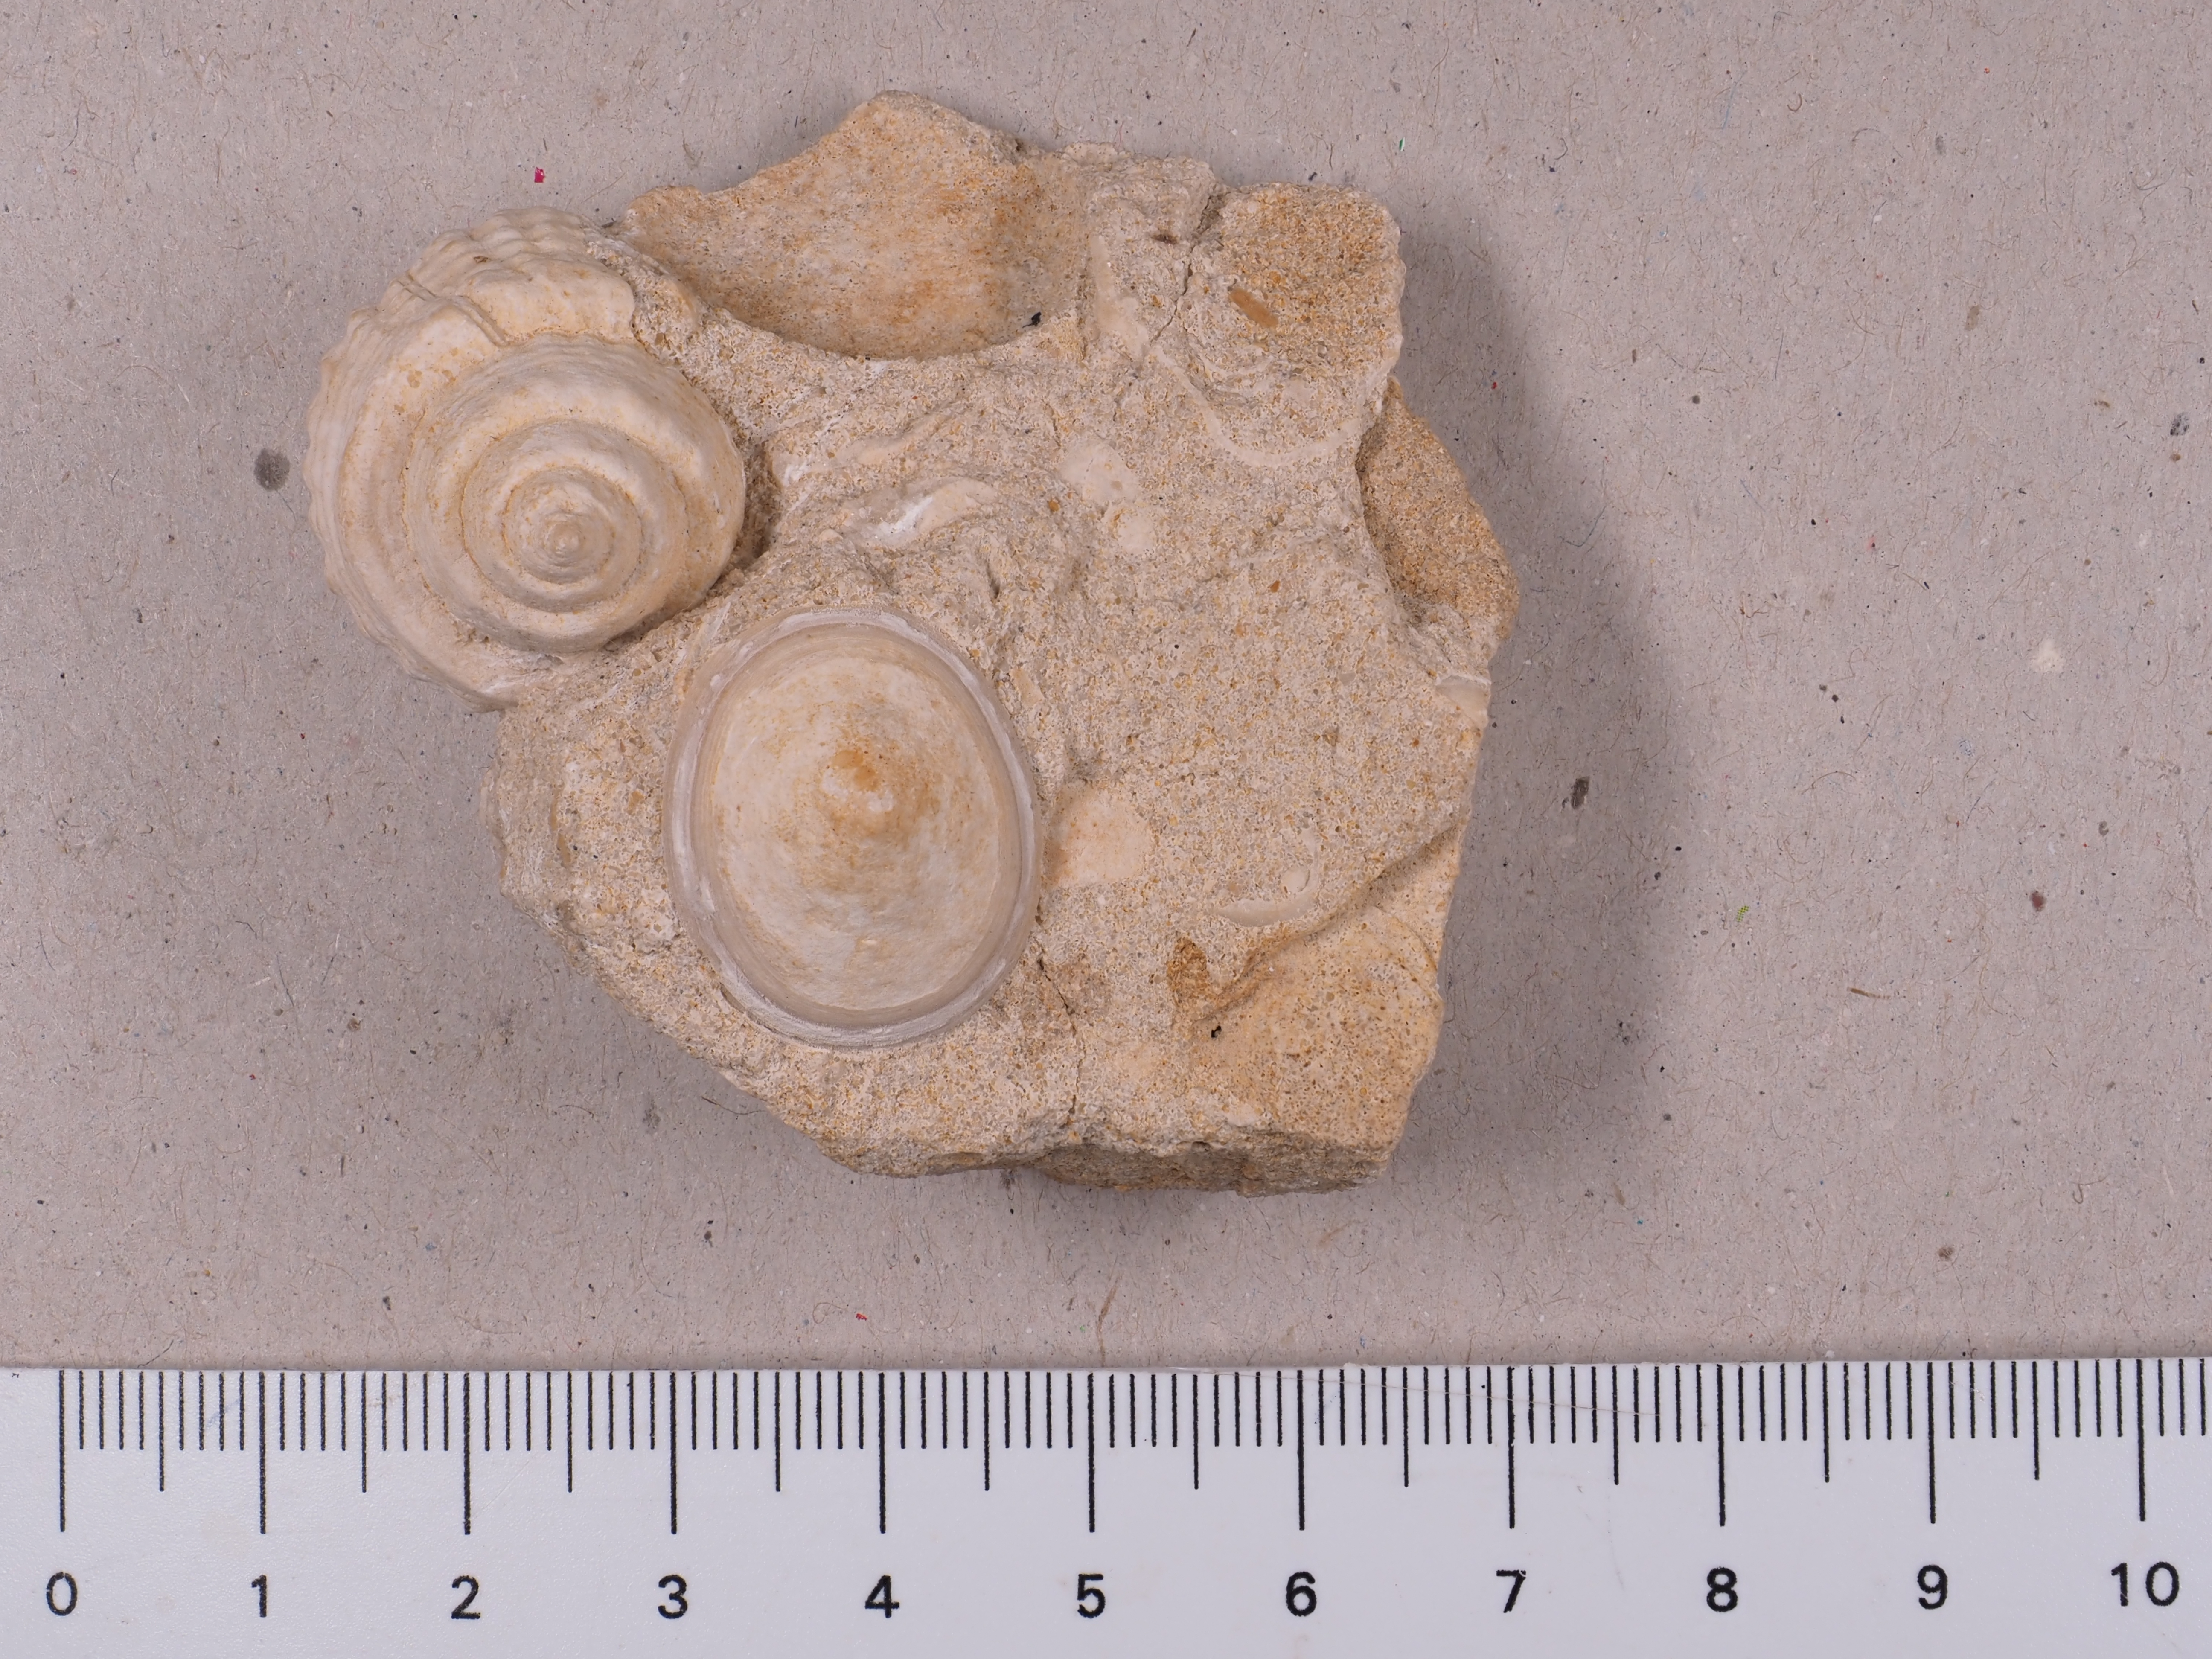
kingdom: Animalia
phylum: Mollusca
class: Gastropoda
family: Acmaeadae
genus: Scurriopsis
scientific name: Scurriopsis
